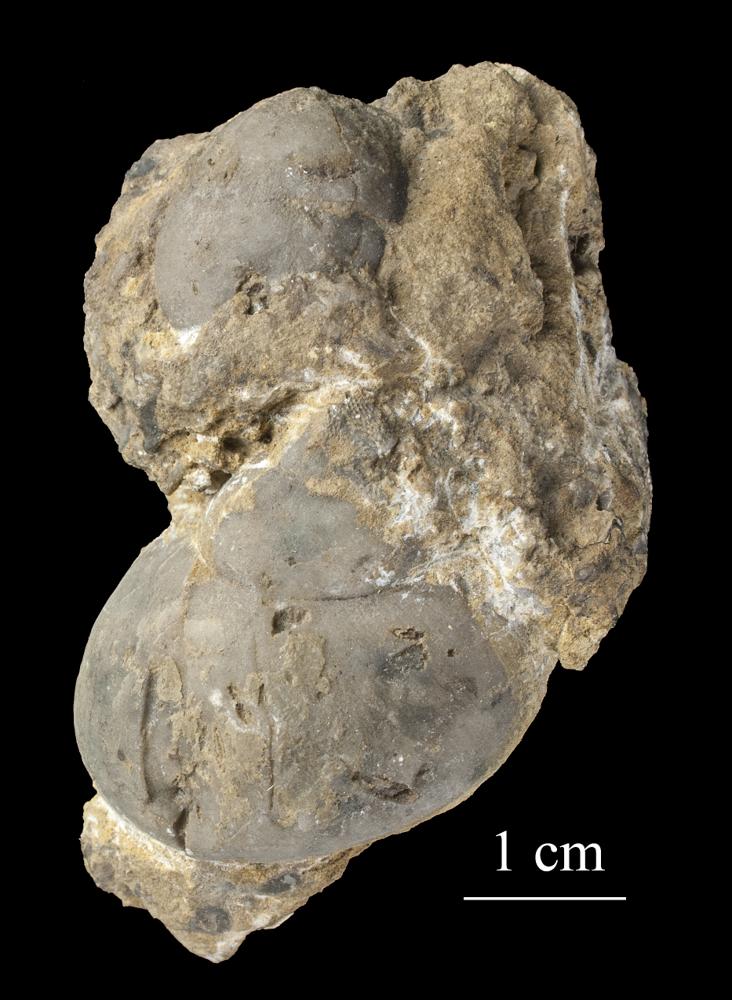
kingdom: Animalia
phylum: Mollusca
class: Gastropoda
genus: Haplospira
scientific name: Haplospira
